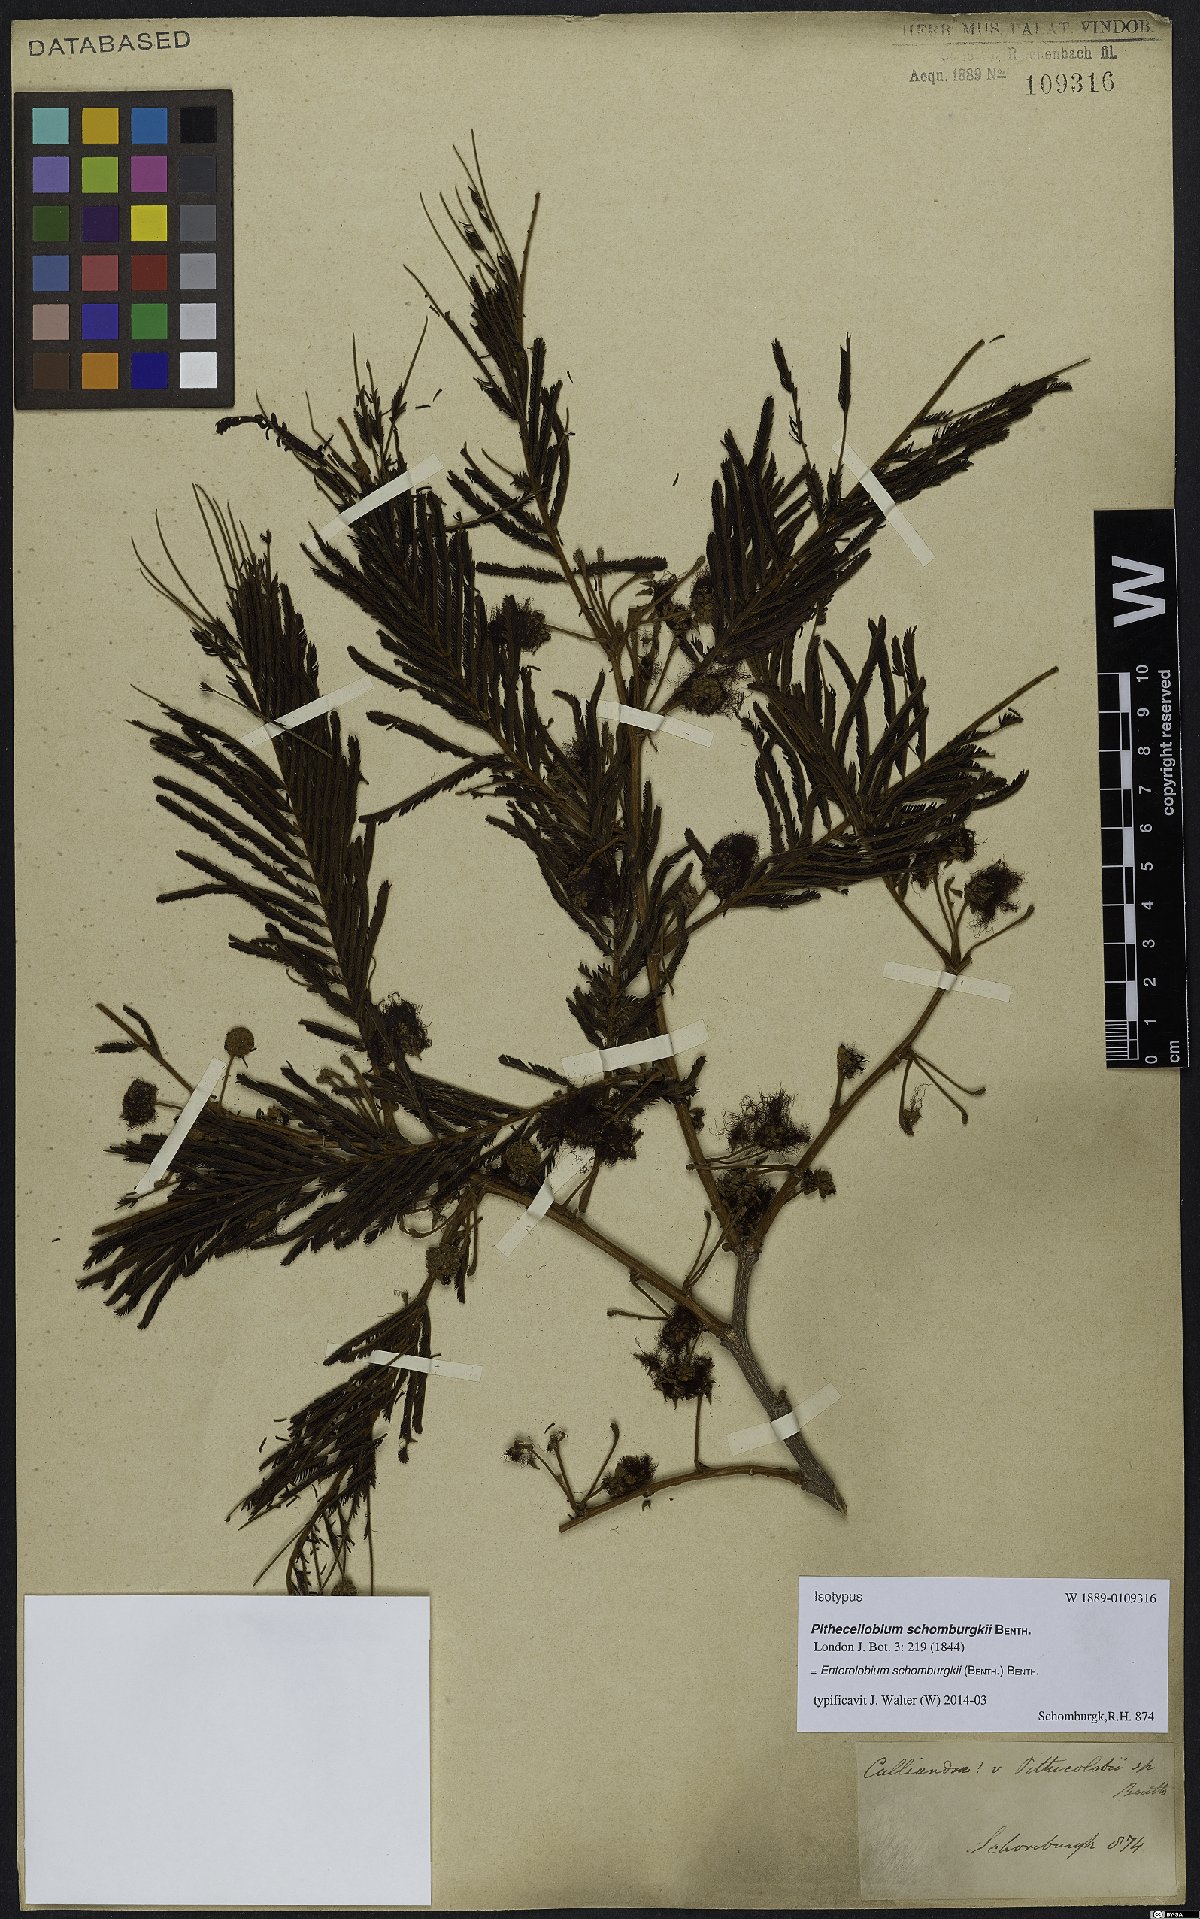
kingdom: Plantae
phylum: Tracheophyta
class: Magnoliopsida
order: Fabales
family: Fabaceae
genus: Enterolobium
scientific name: Enterolobium schomburgkii
